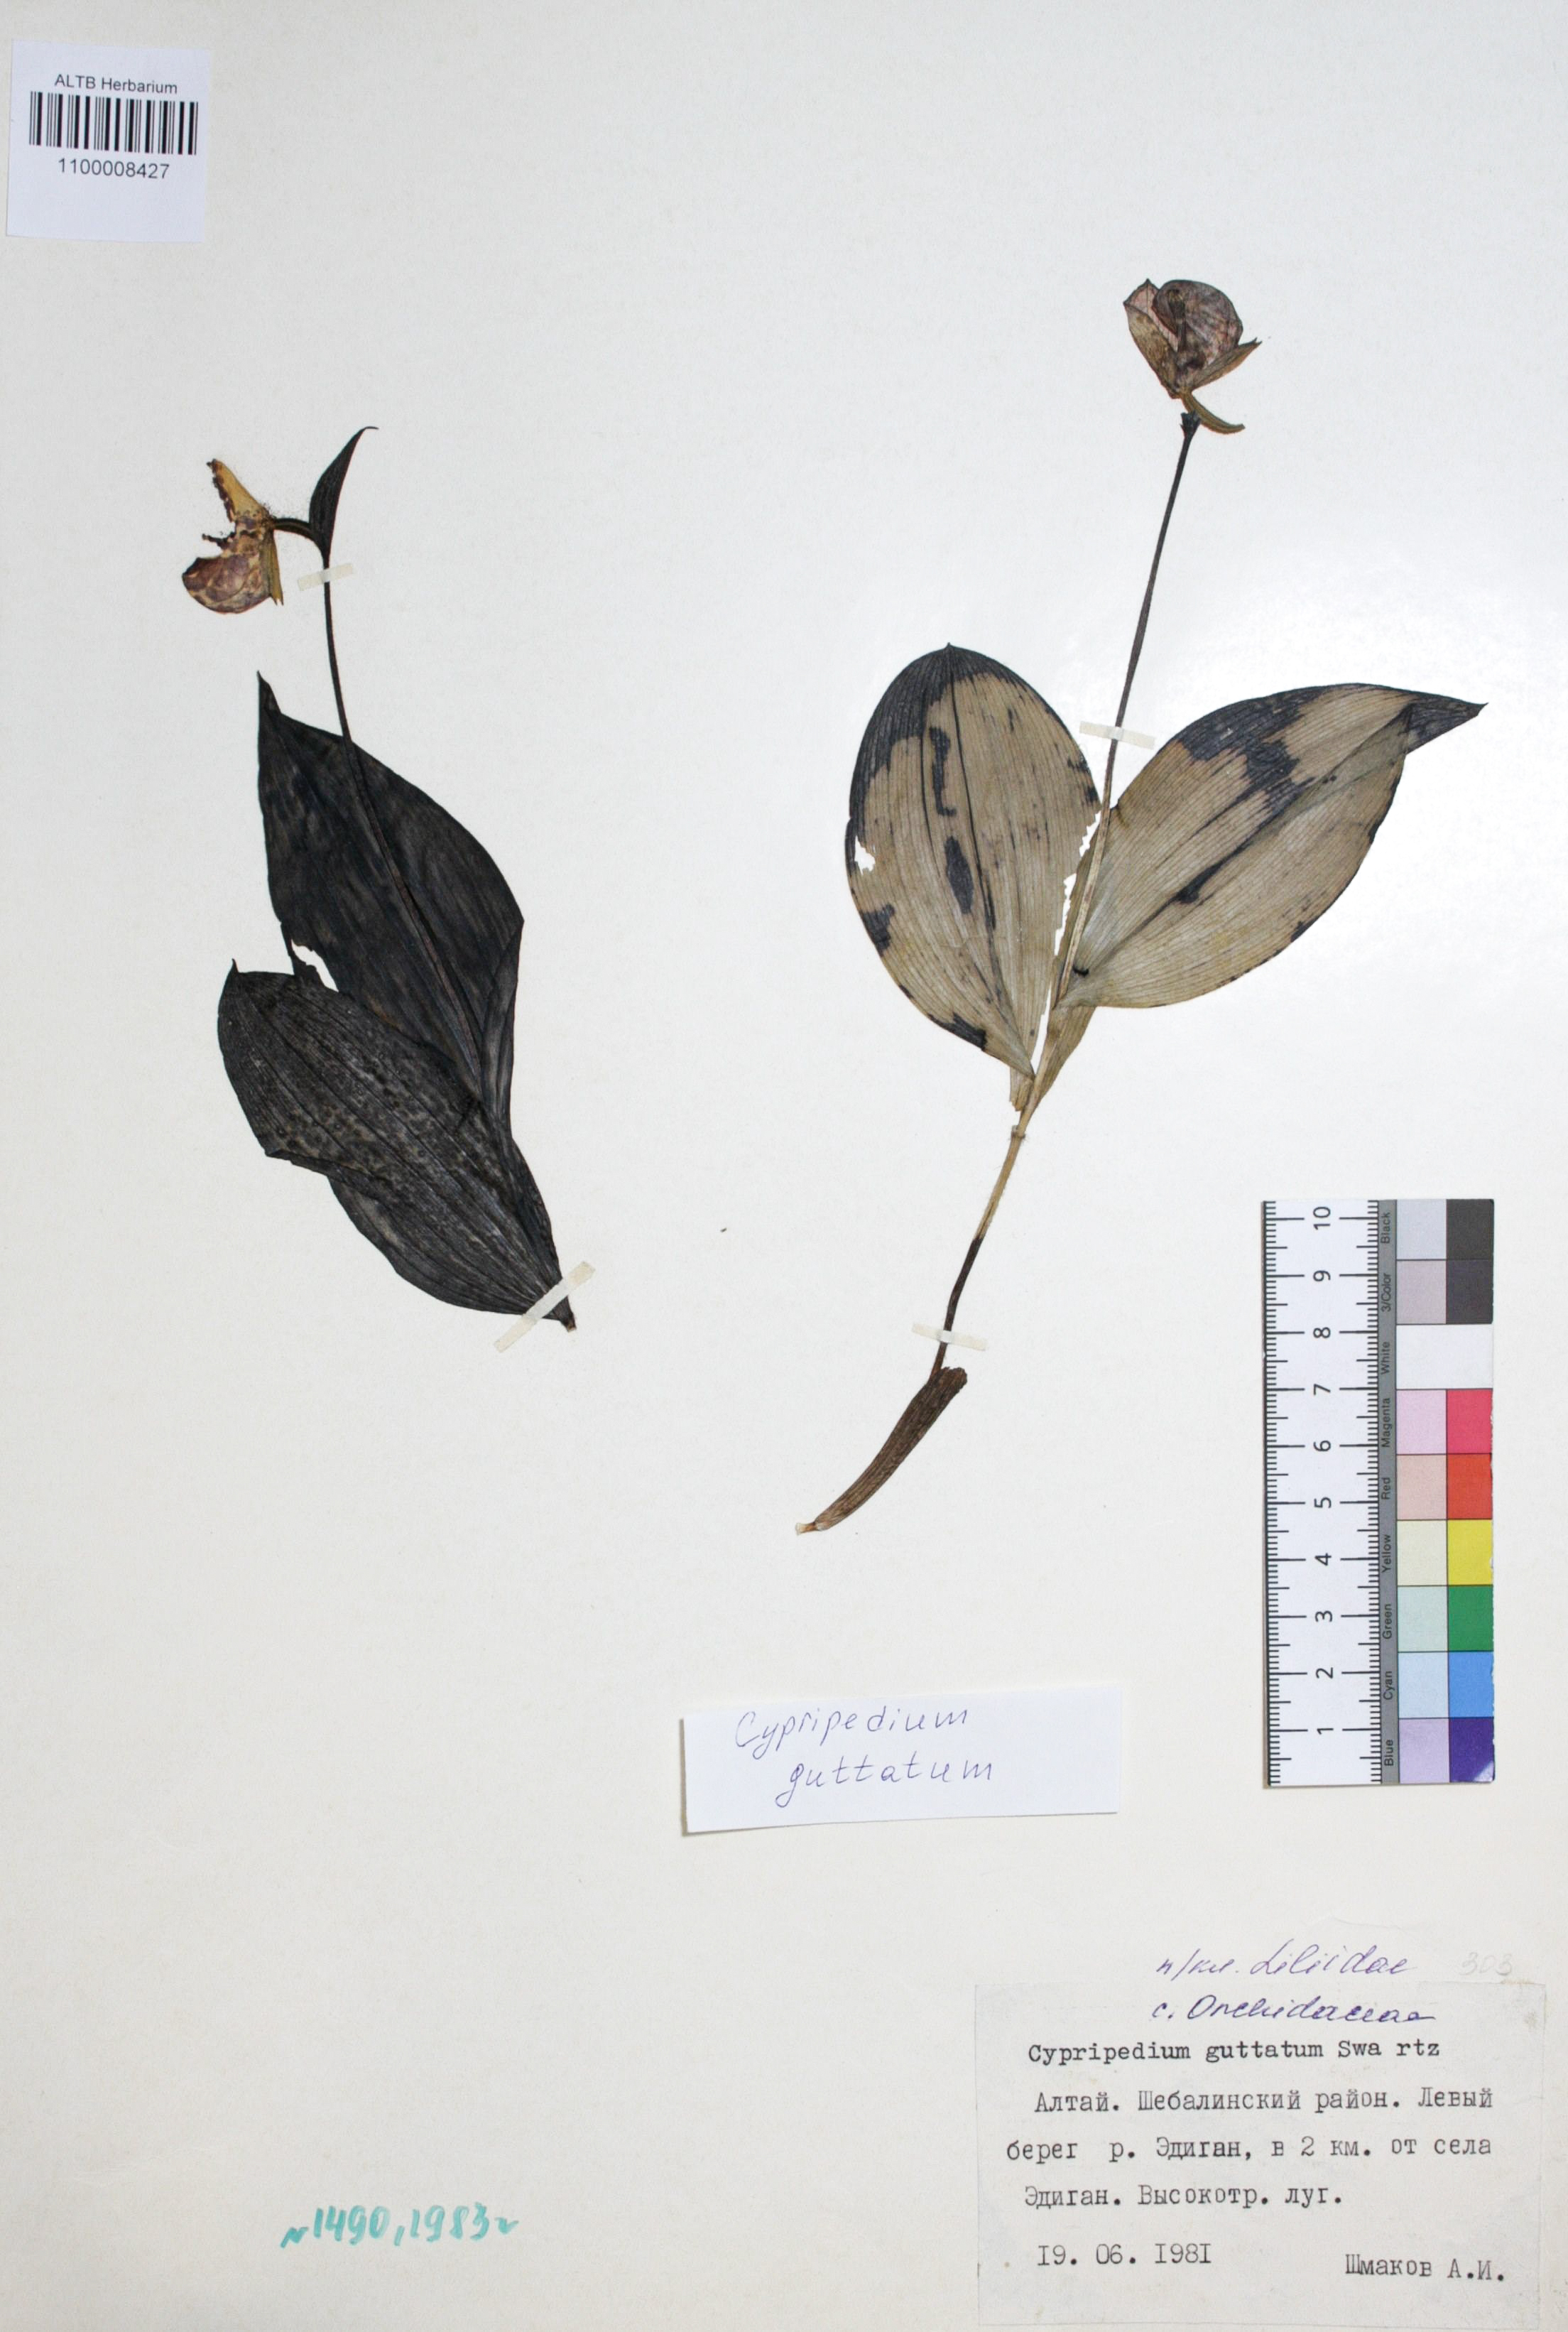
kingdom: Plantae
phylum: Tracheophyta
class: Liliopsida
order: Asparagales
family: Orchidaceae
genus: Cypripedium
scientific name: Cypripedium guttatum
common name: Pink lady slipper
